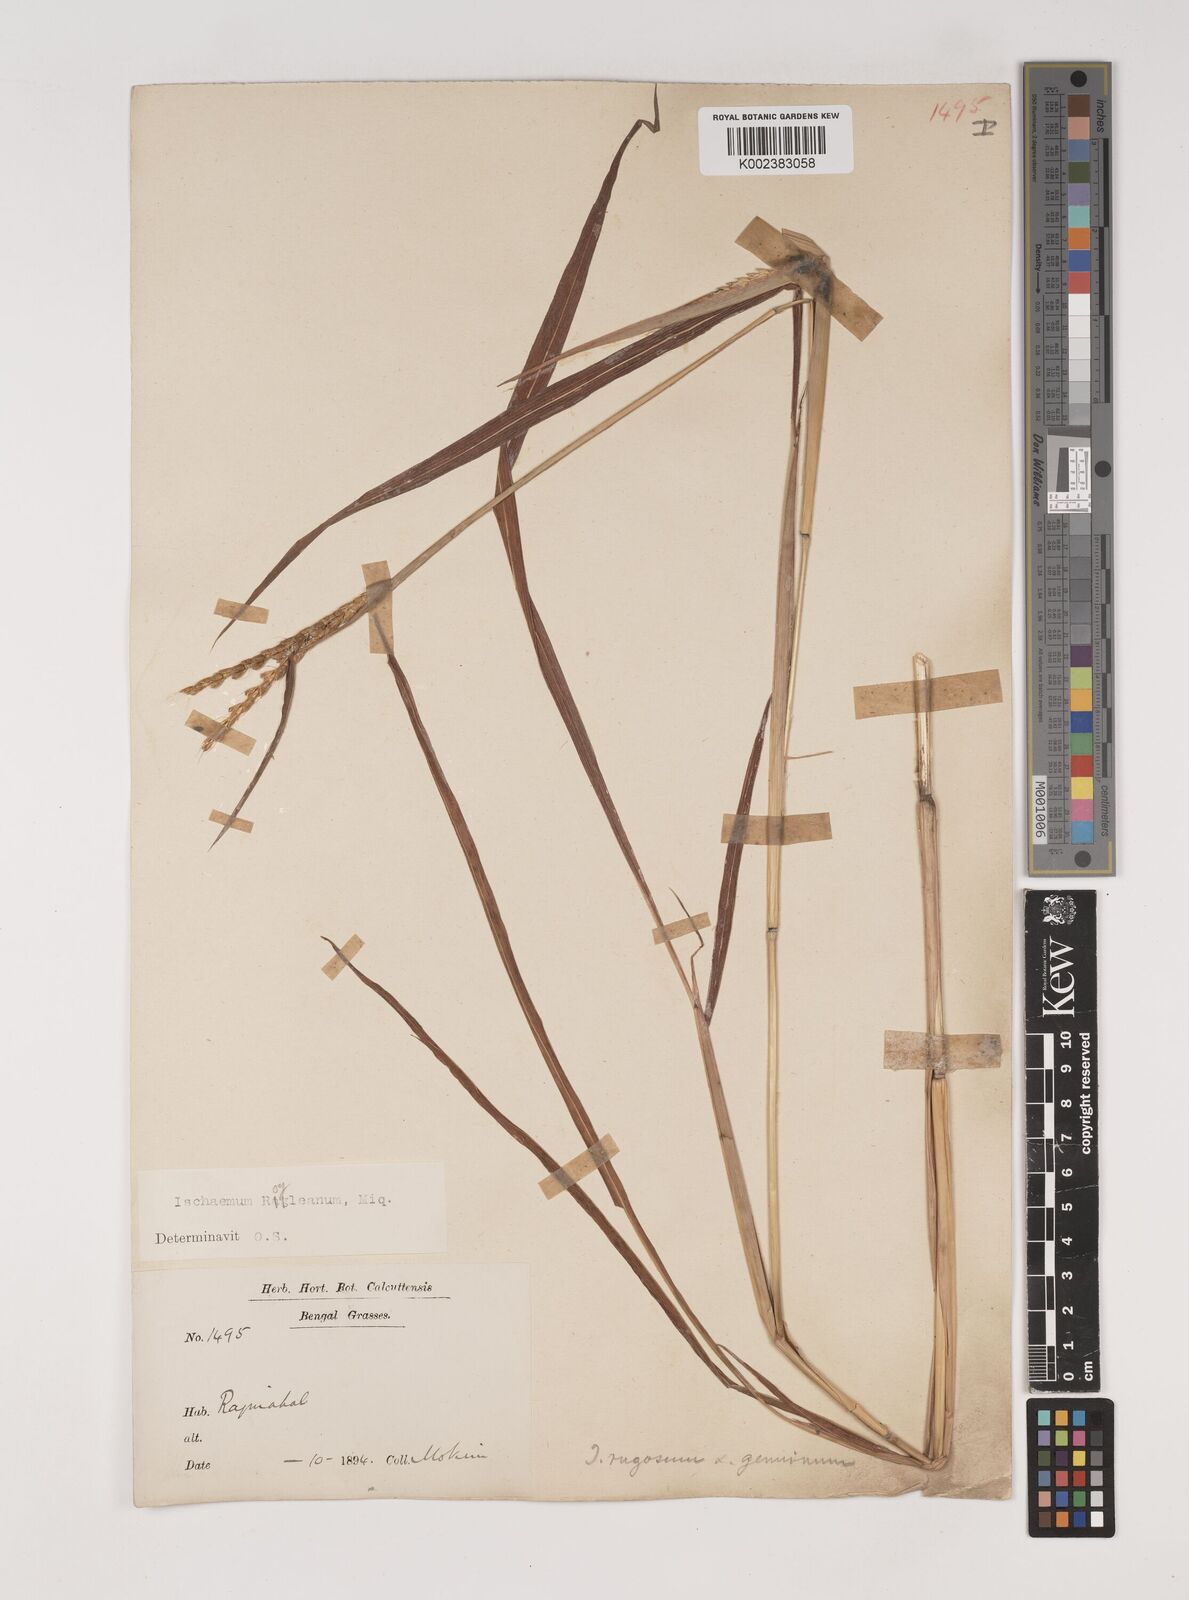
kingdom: Plantae
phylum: Tracheophyta
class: Liliopsida
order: Poales
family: Poaceae
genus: Ischaemum
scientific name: Ischaemum rugosum
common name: Saramatta grass
